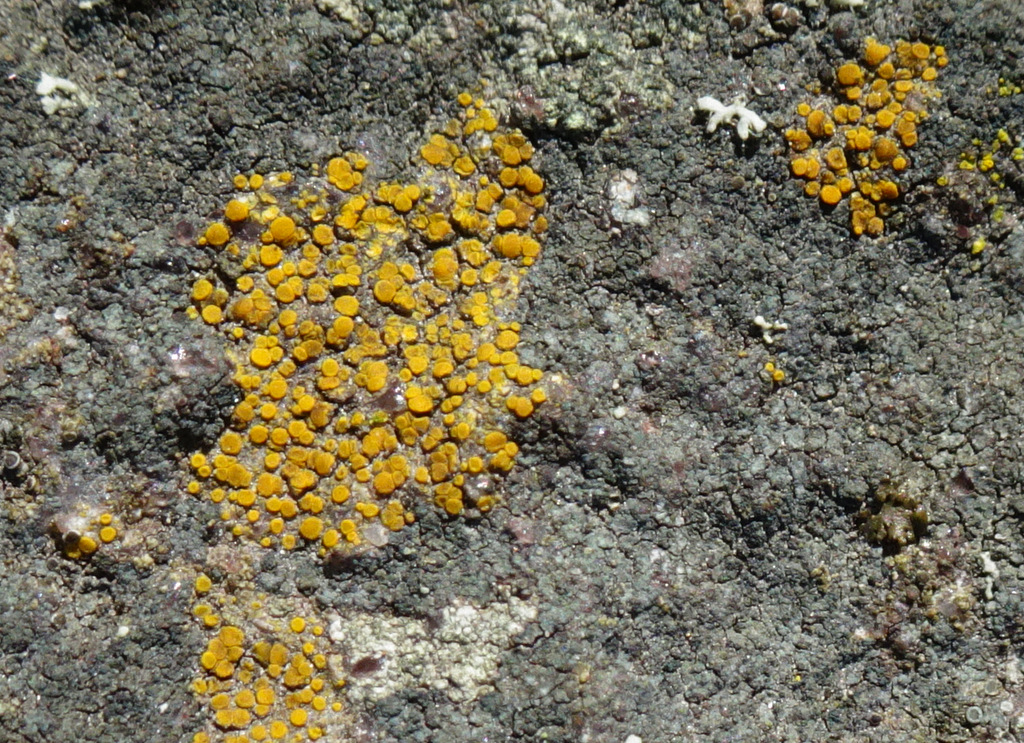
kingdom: Fungi
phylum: Ascomycota
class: Lecanoromycetes
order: Teloschistales
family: Teloschistaceae
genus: Athallia
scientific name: Athallia
